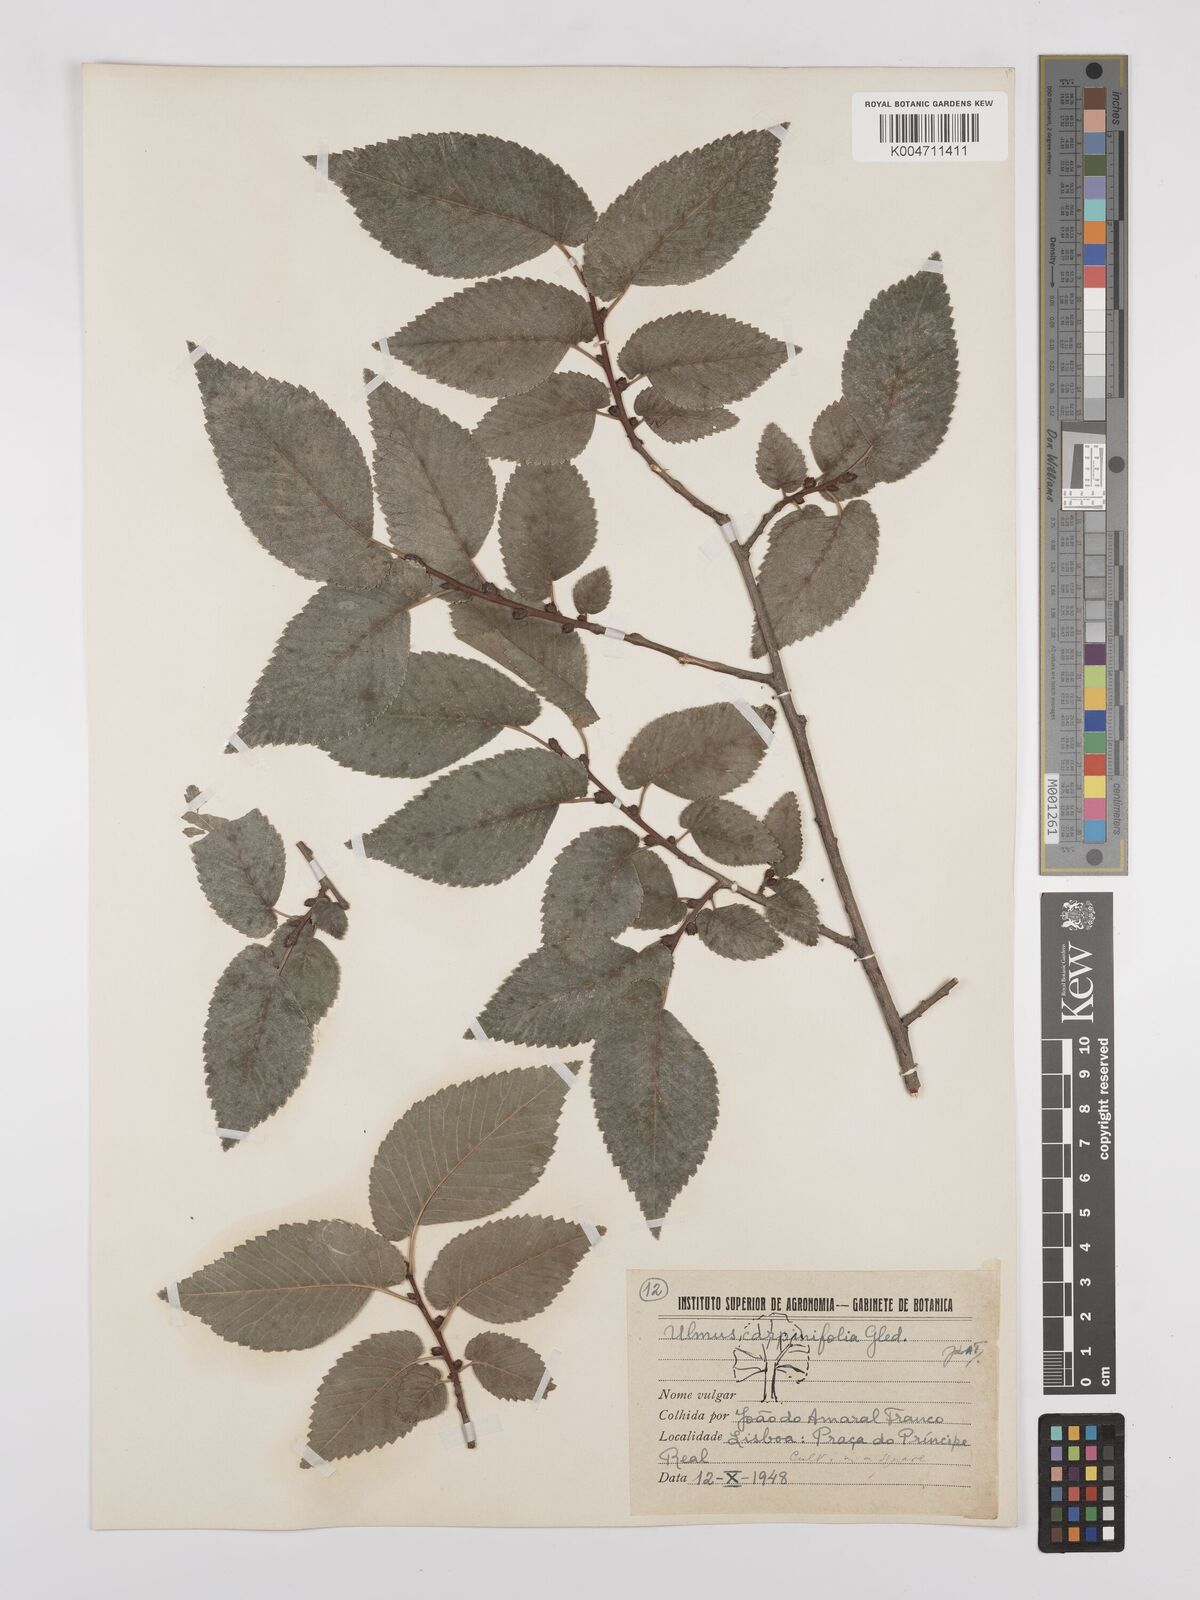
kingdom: Plantae
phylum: Tracheophyta
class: Magnoliopsida
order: Rosales
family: Ulmaceae
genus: Ulmus
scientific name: Ulmus minor
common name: Small-leaved elm
